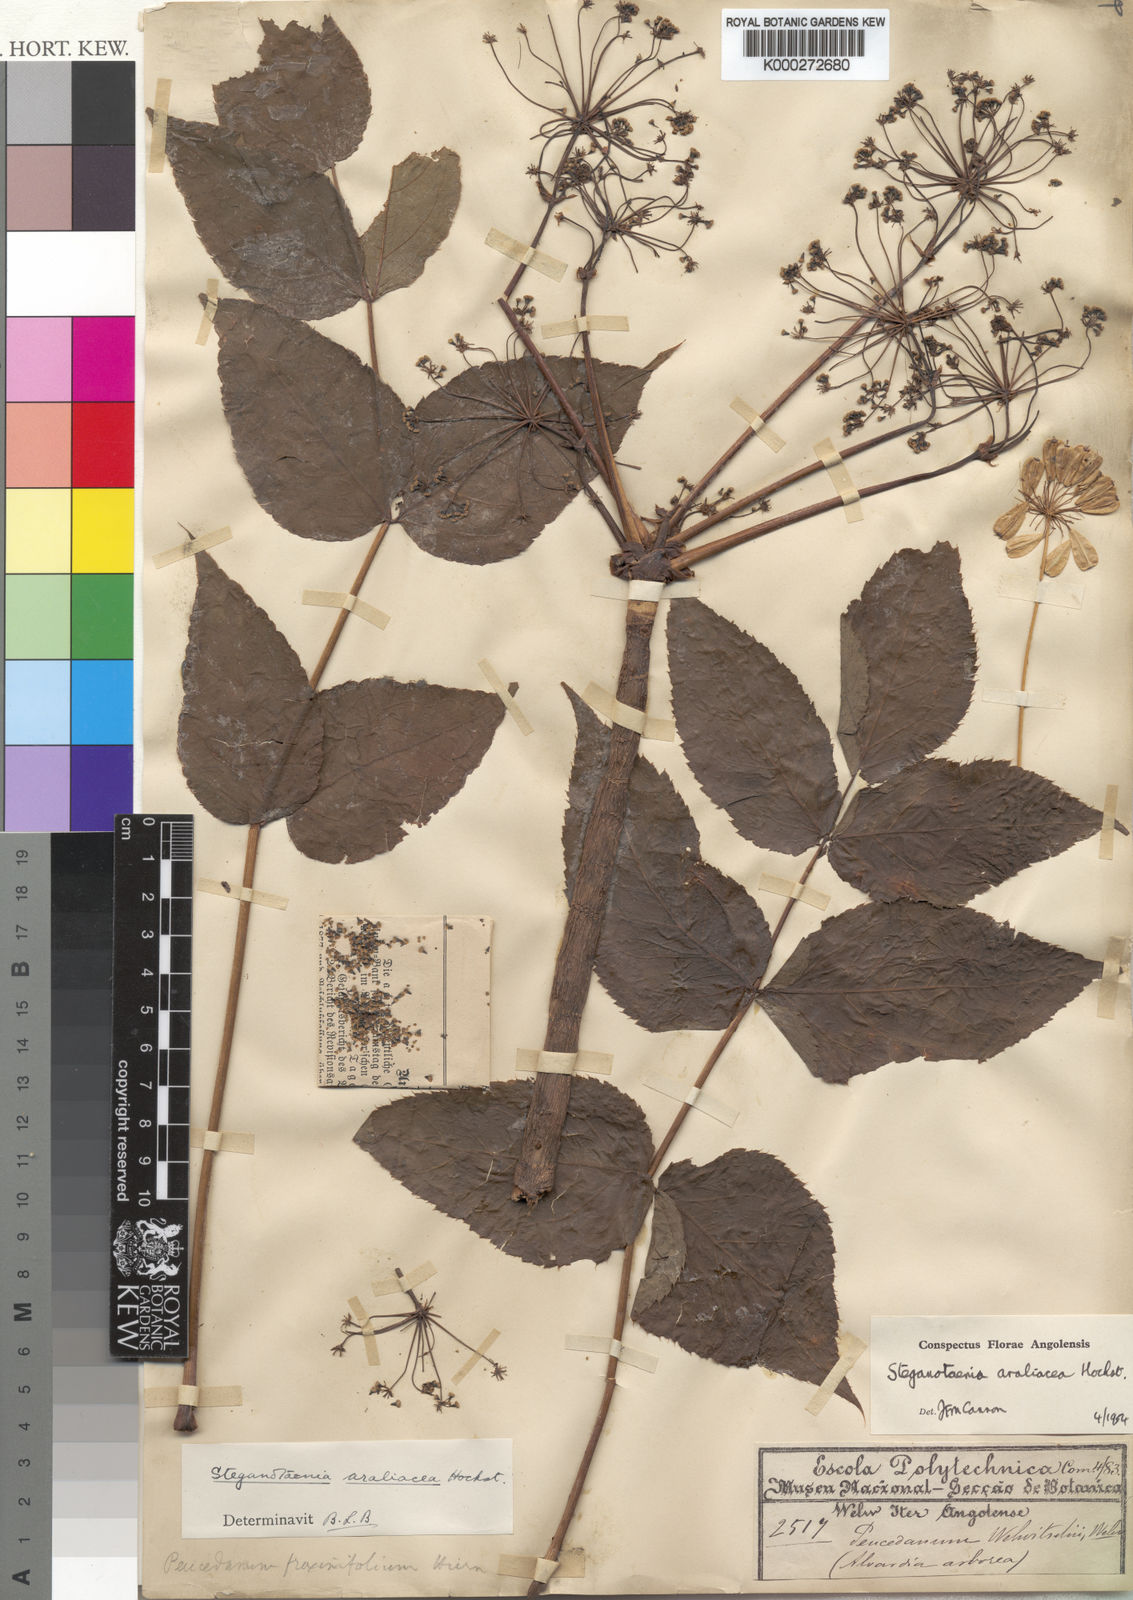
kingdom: Plantae
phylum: Tracheophyta
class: Magnoliopsida
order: Apiales
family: Apiaceae
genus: Steganotaenia
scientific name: Steganotaenia araliacea
